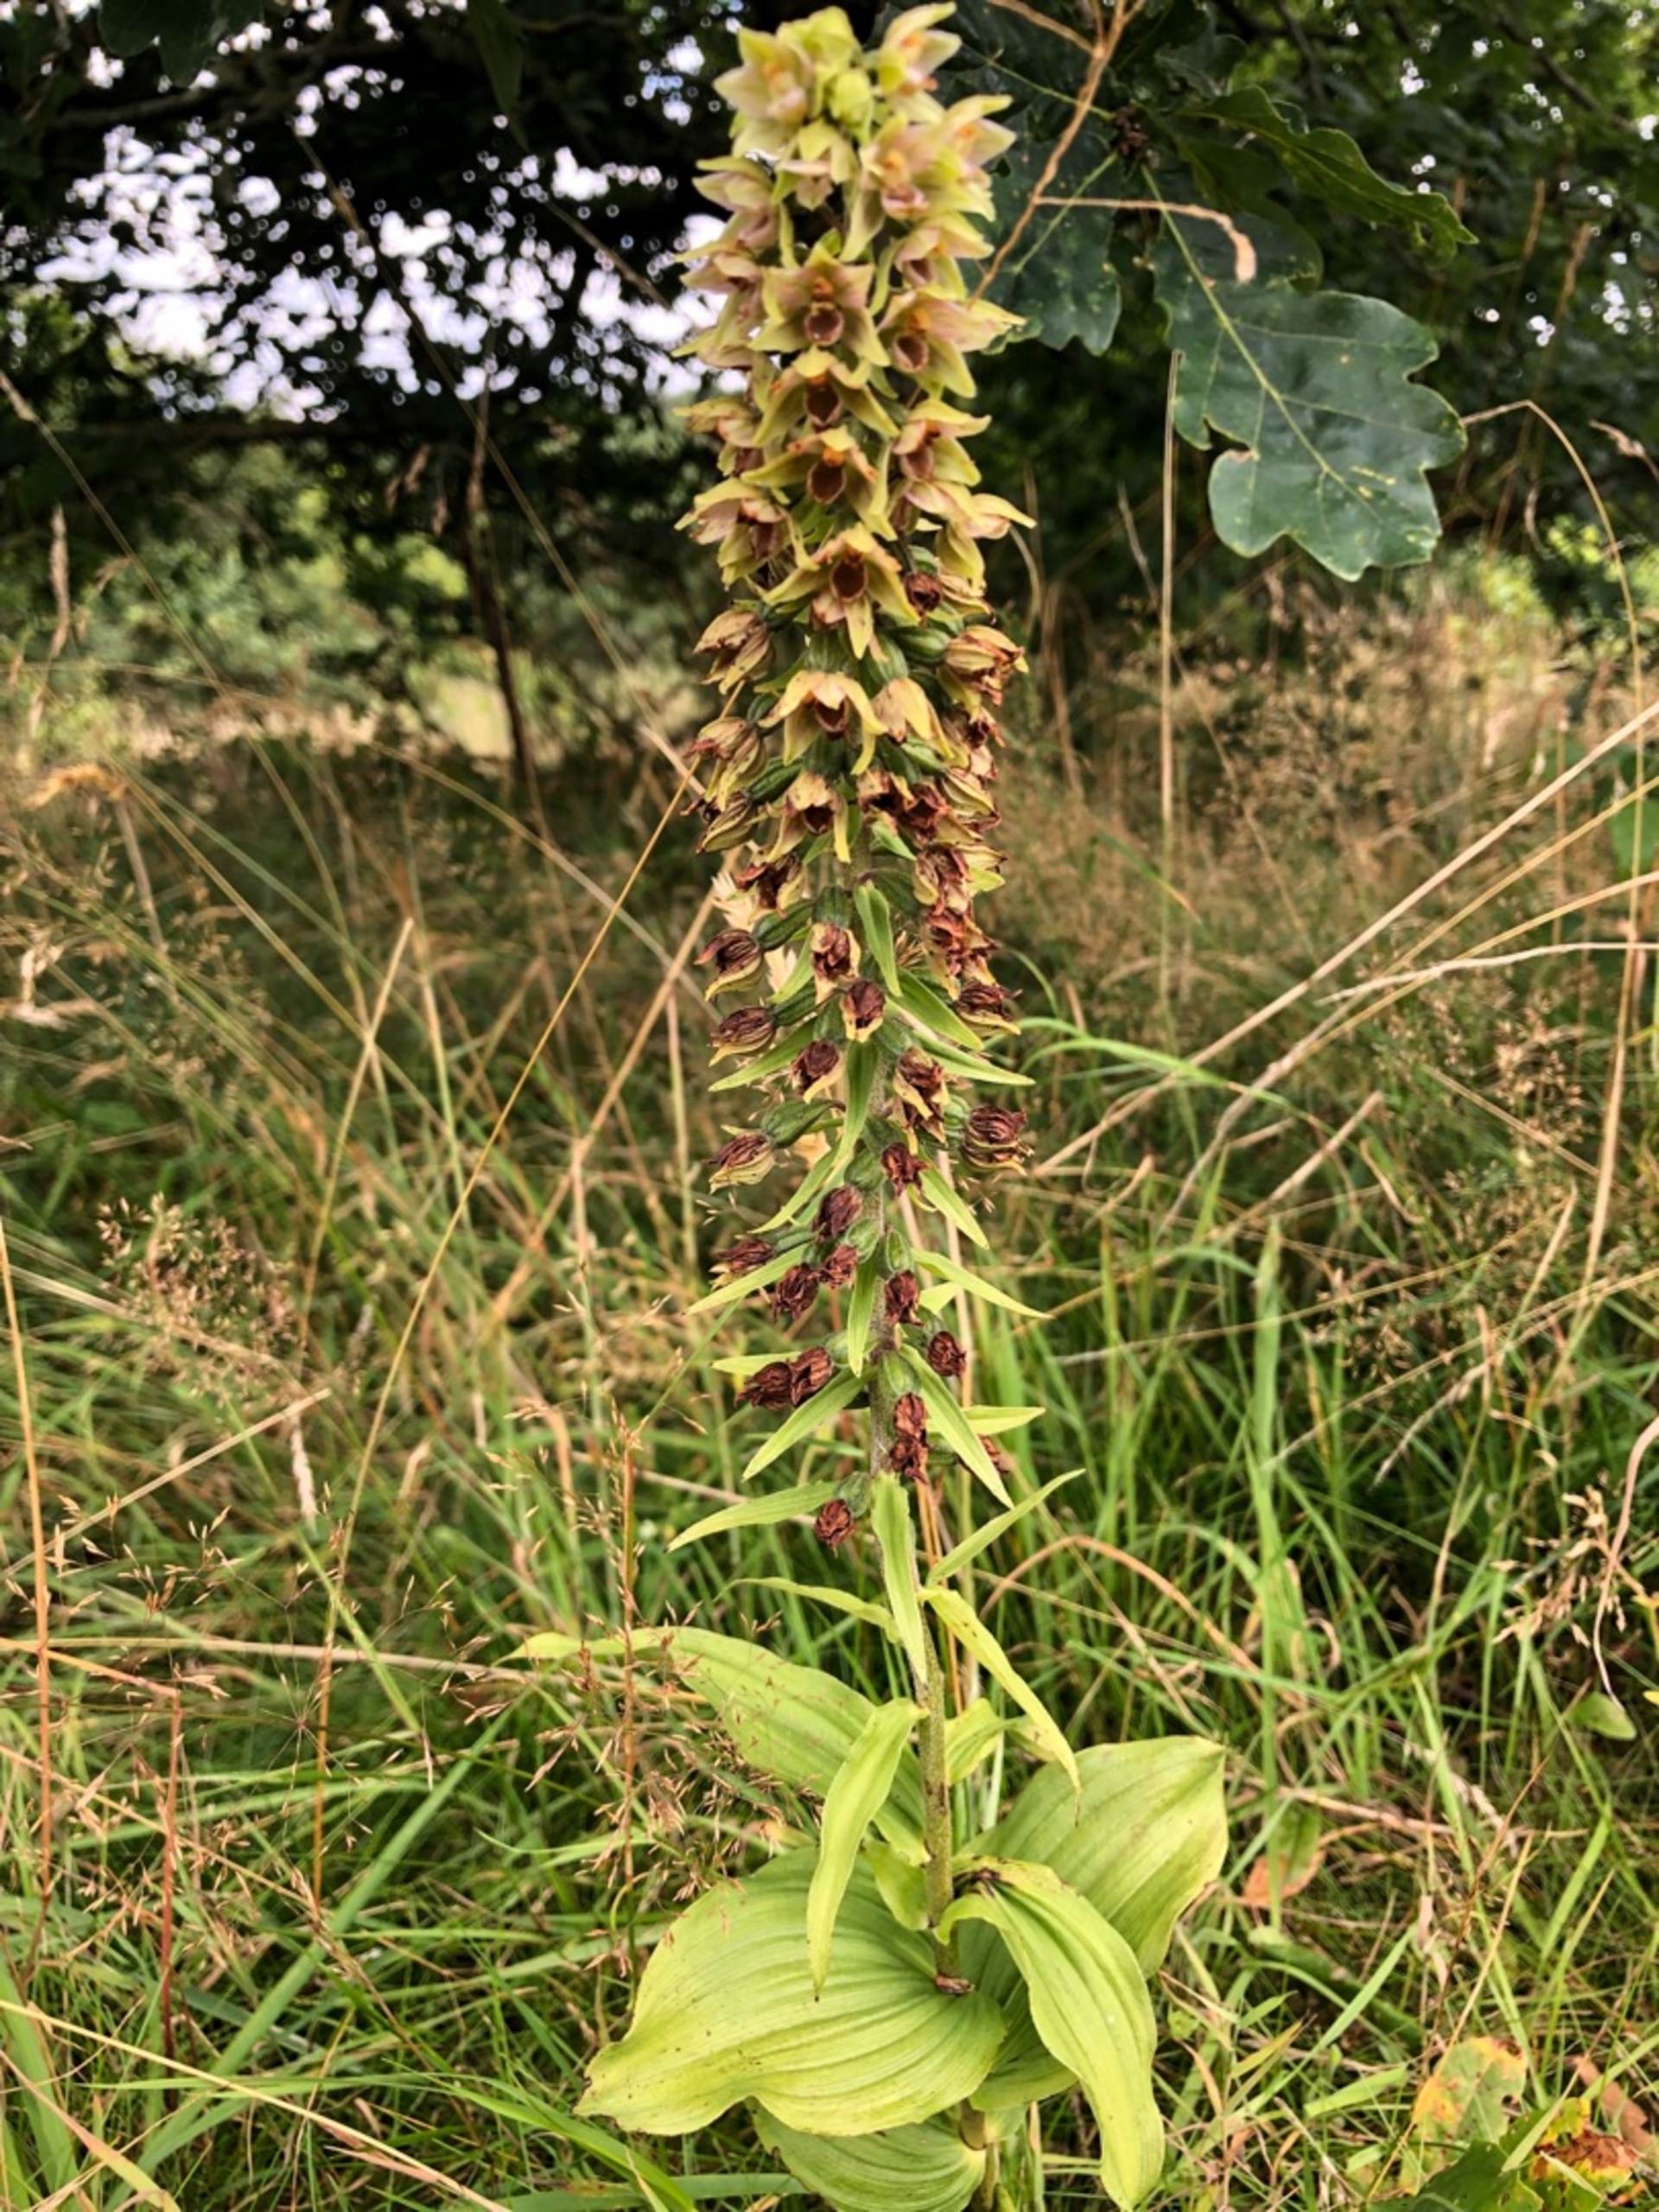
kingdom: Plantae
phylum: Tracheophyta
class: Liliopsida
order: Asparagales
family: Orchidaceae
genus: Epipactis
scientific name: Epipactis helleborine
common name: Skov-hullæbe
